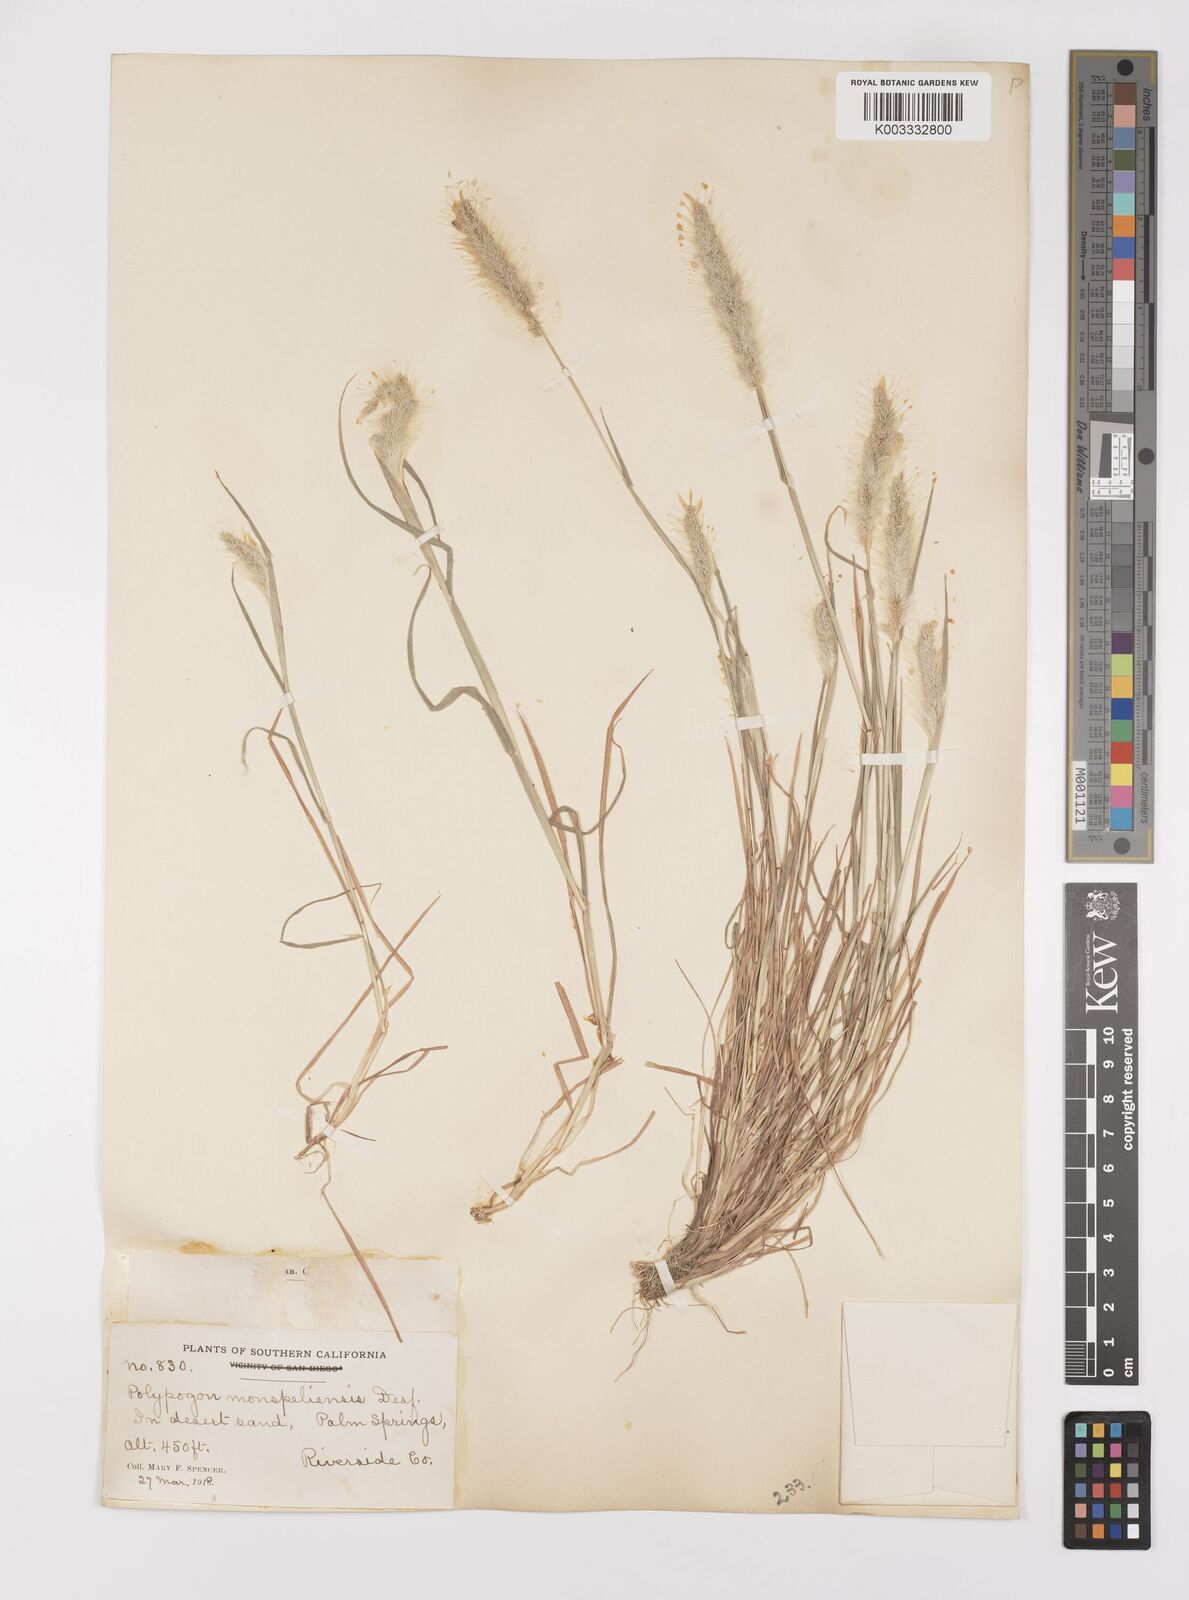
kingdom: Plantae
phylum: Tracheophyta
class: Liliopsida
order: Poales
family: Poaceae
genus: Polypogon
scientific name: Polypogon monspeliensis
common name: Annual rabbitsfoot grass
